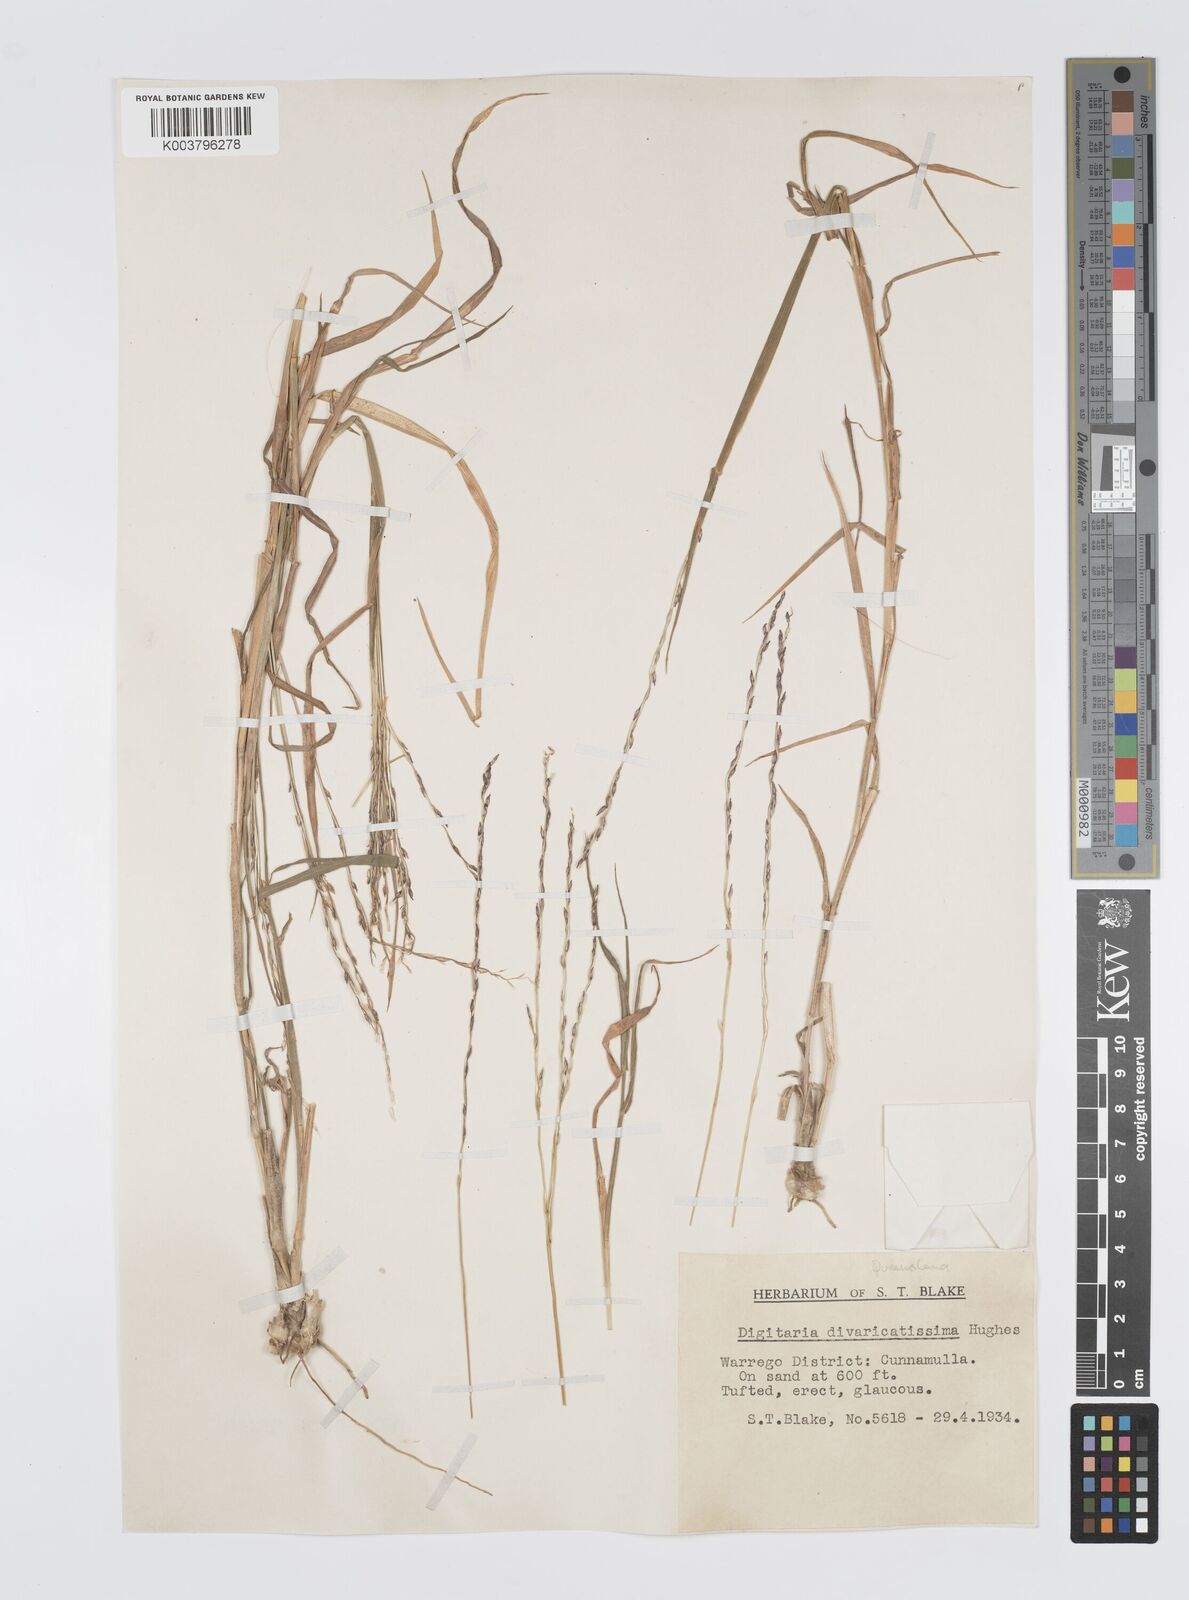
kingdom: Plantae
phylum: Tracheophyta
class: Liliopsida
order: Poales
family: Poaceae
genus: Digitaria
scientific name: Digitaria divaricatissima
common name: Crabgrass
